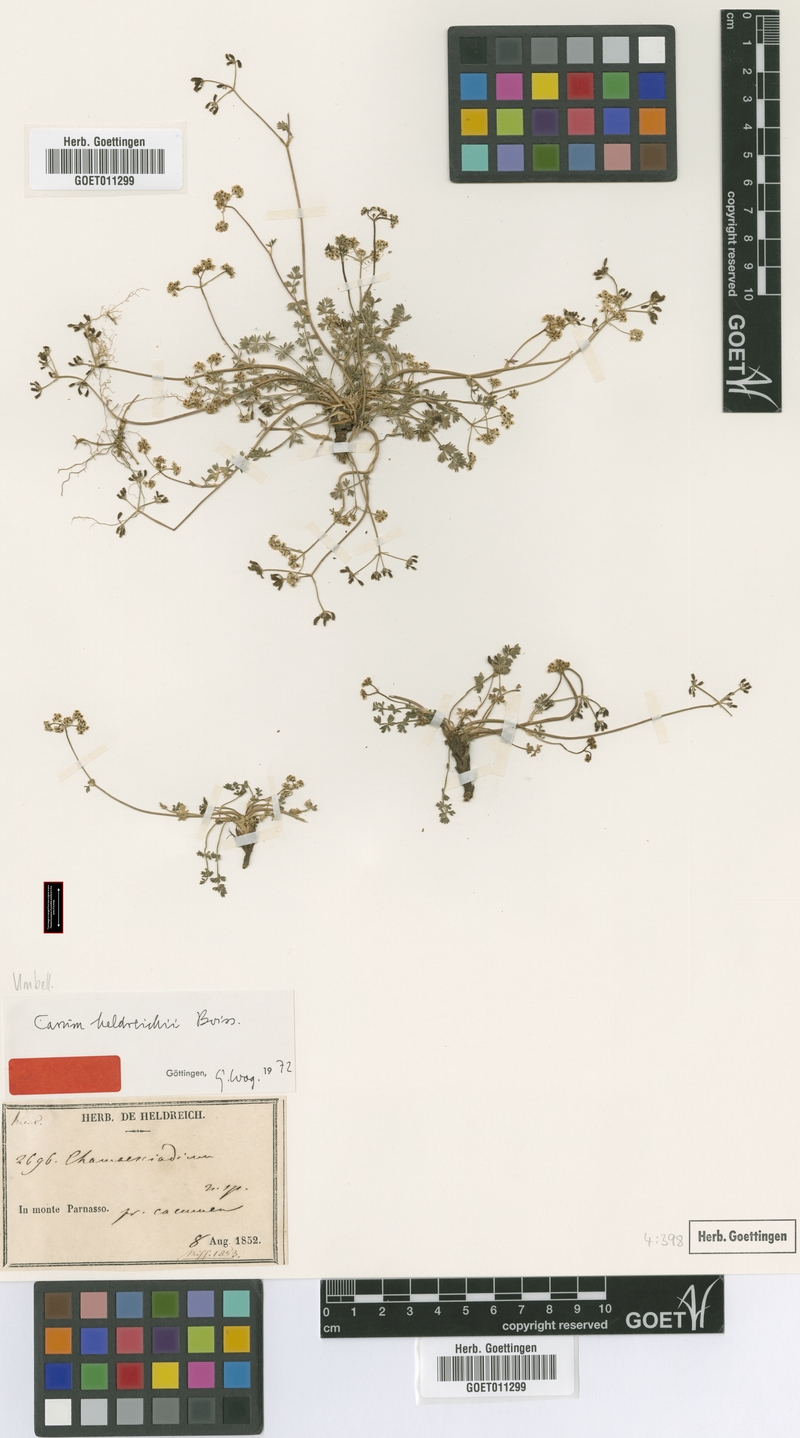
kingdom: Plantae
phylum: Tracheophyta
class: Magnoliopsida
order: Apiales
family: Apiaceae
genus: Carum
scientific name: Carum heldreichii
